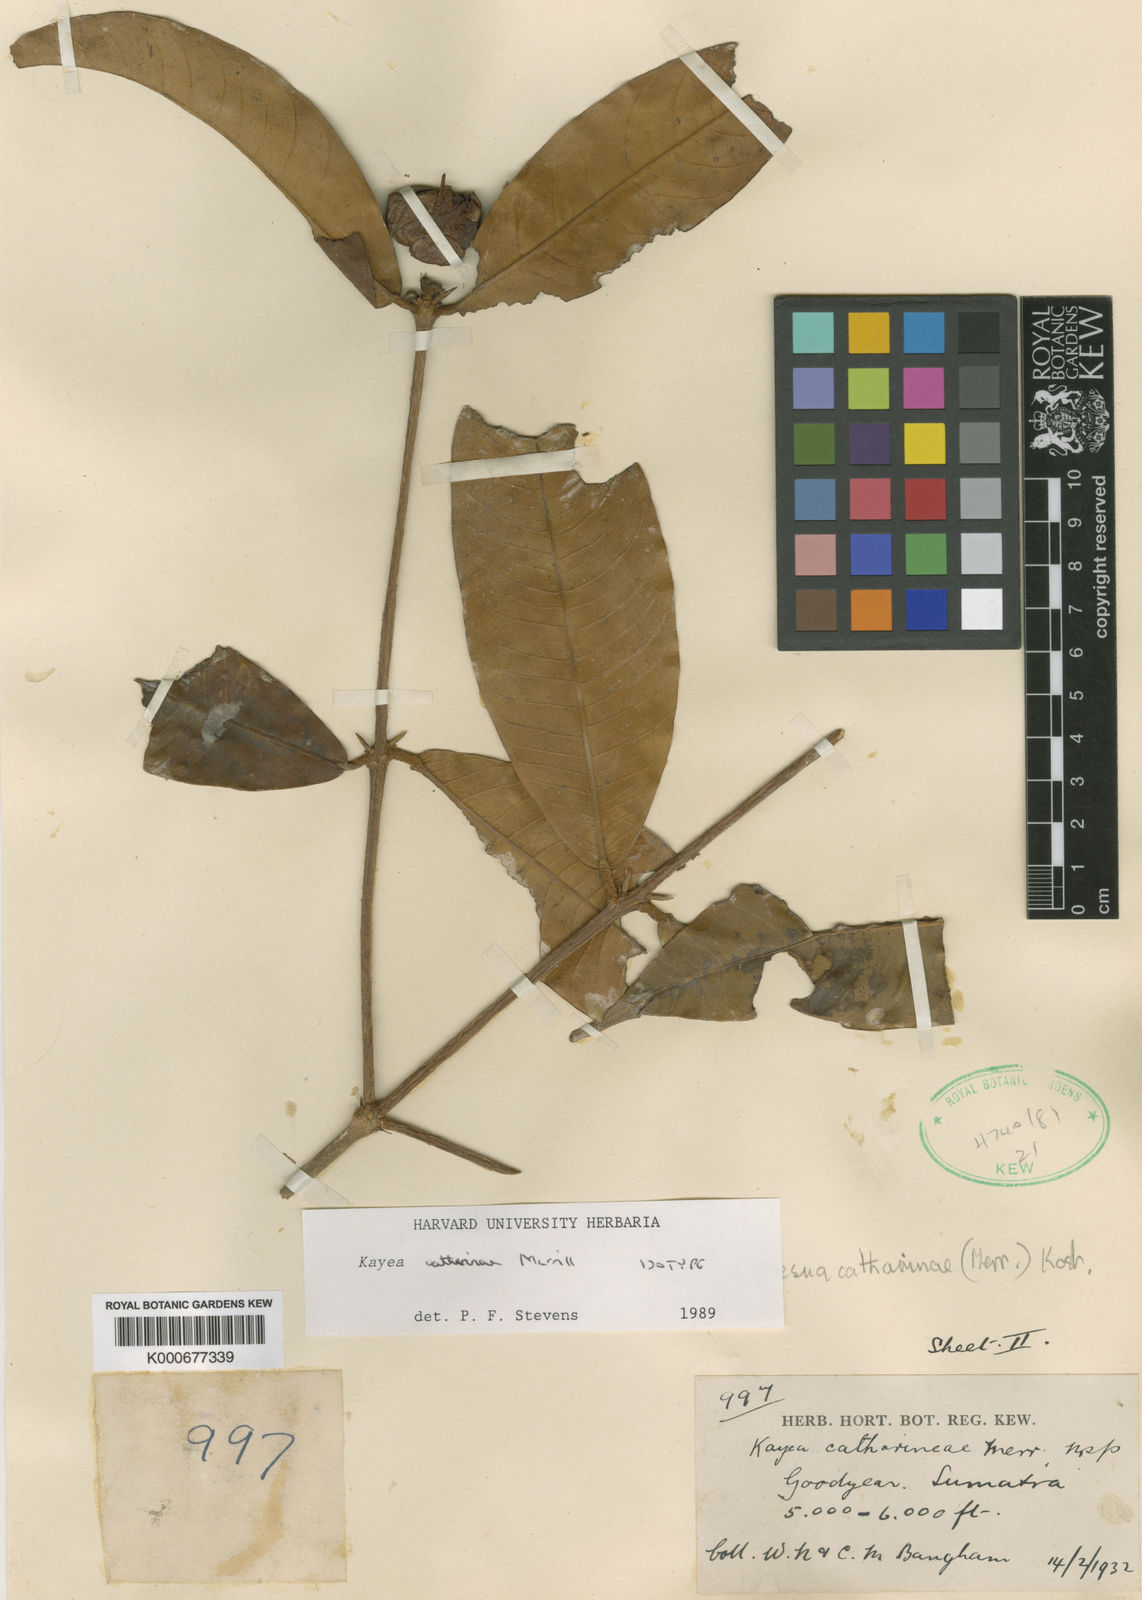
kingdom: Plantae
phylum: Tracheophyta
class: Magnoliopsida
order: Malpighiales
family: Calophyllaceae
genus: Kayea
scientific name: Kayea catharinae
